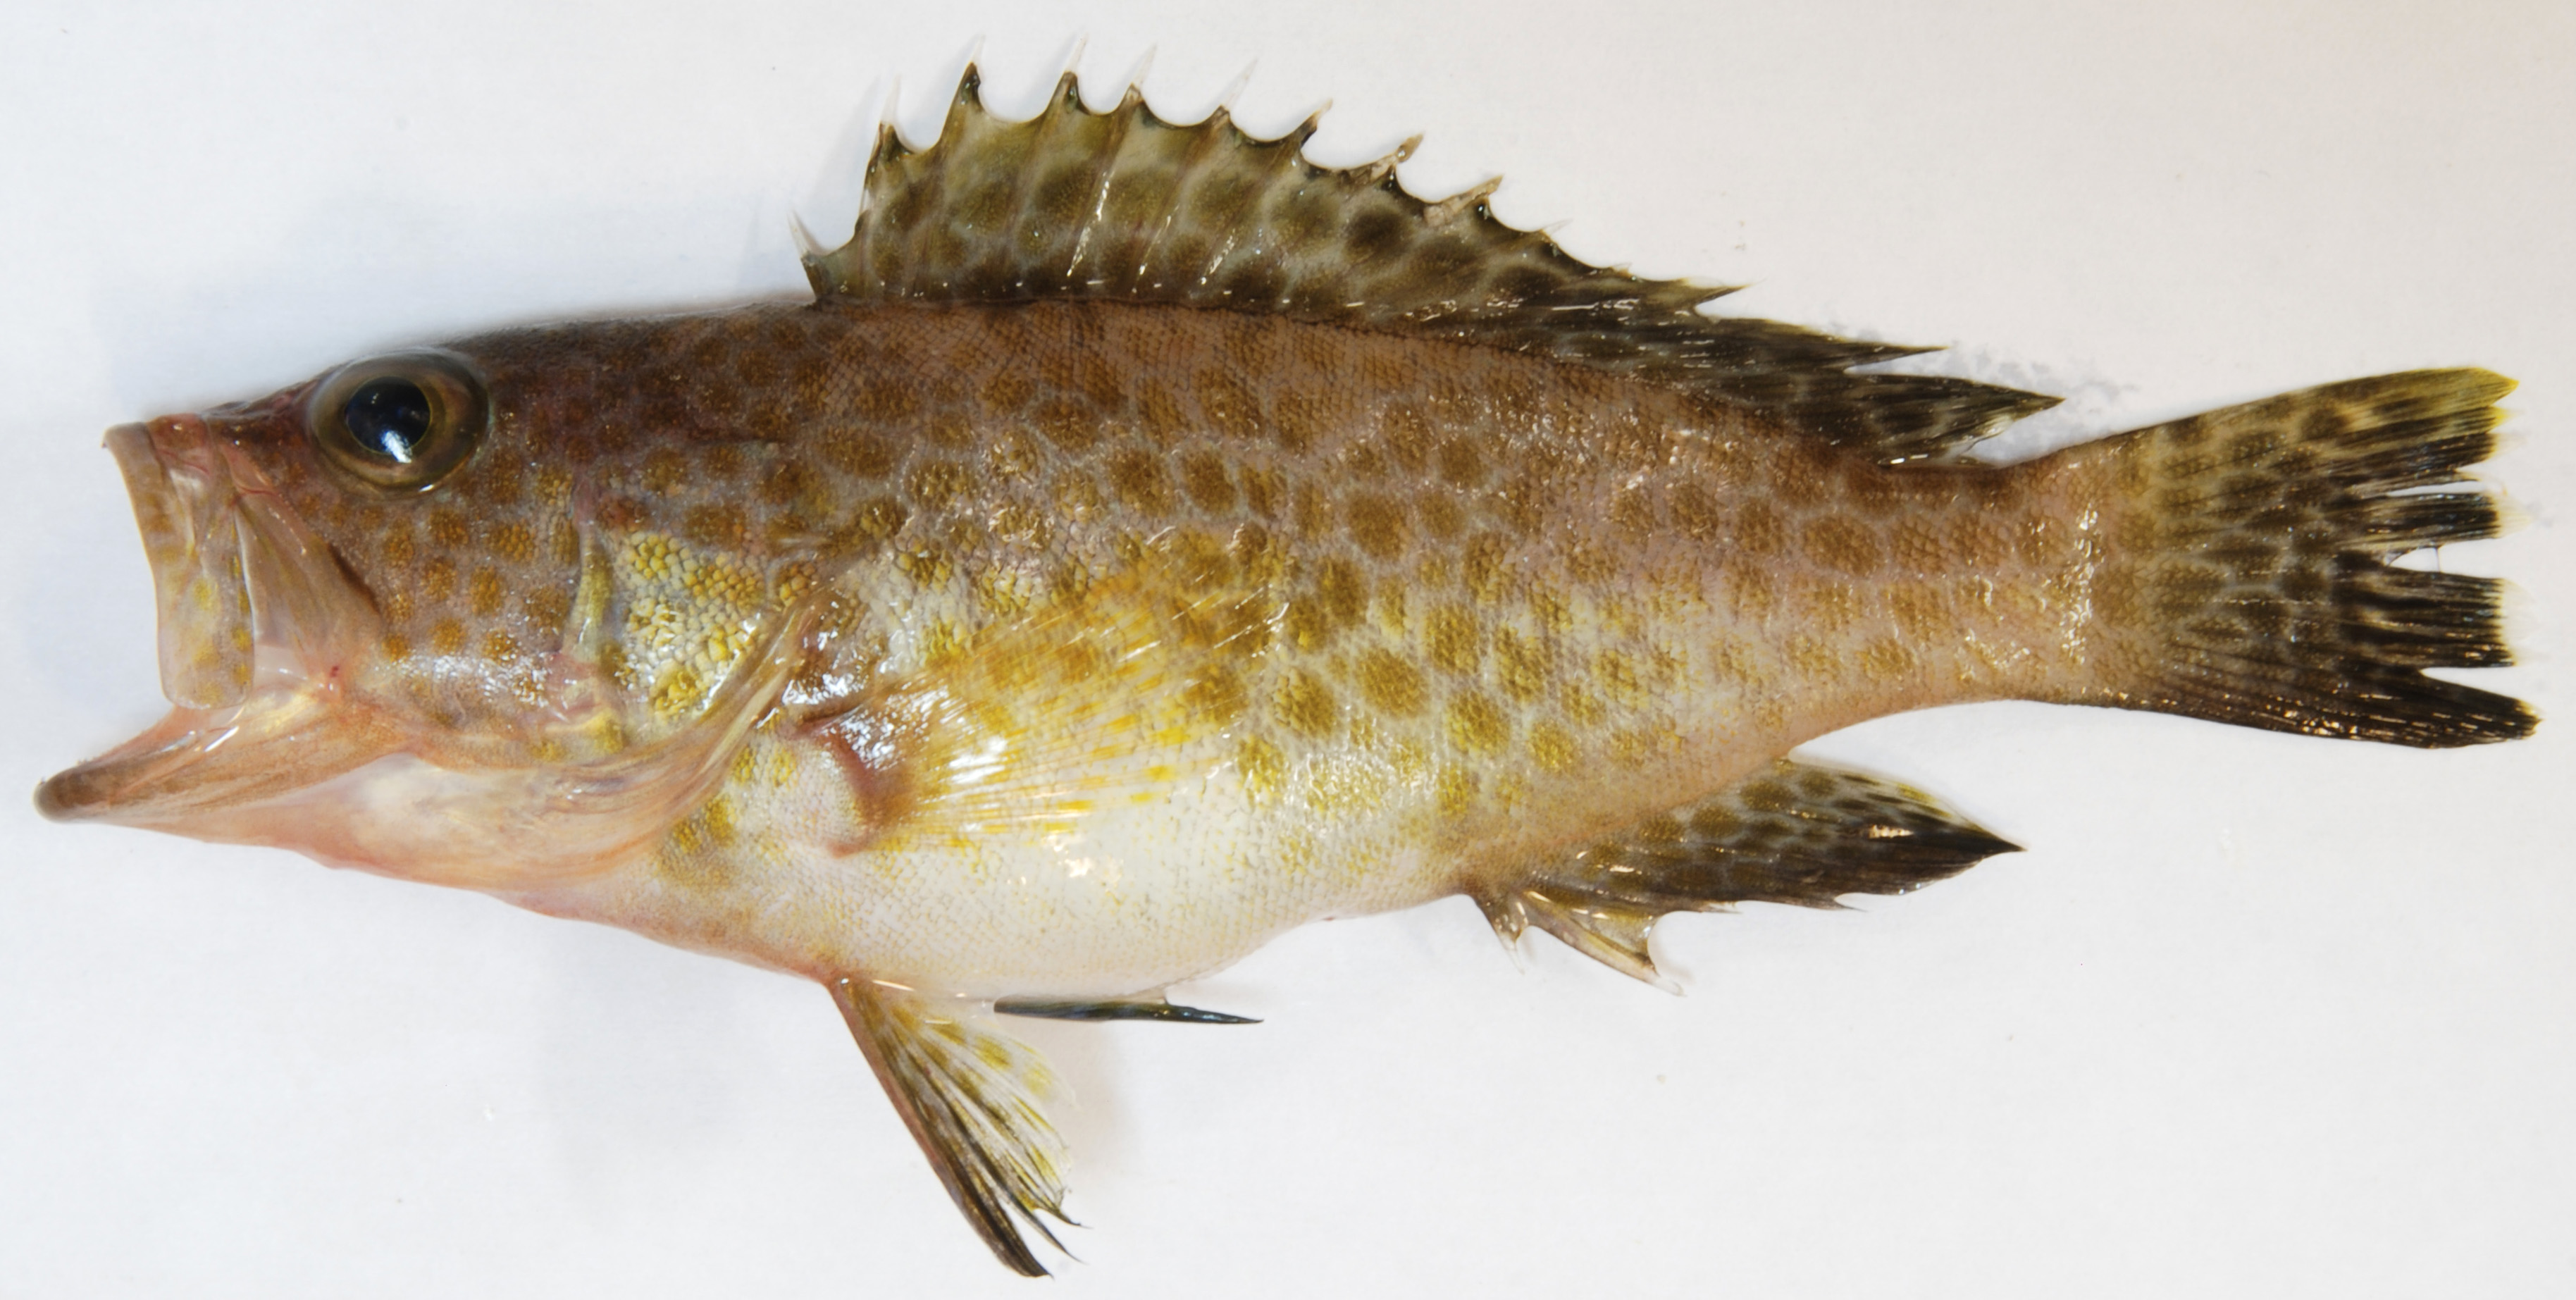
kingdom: Animalia
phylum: Chordata
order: Perciformes
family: Serranidae
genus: Epinephelus
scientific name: Epinephelus areolatus
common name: Areolate grouper
